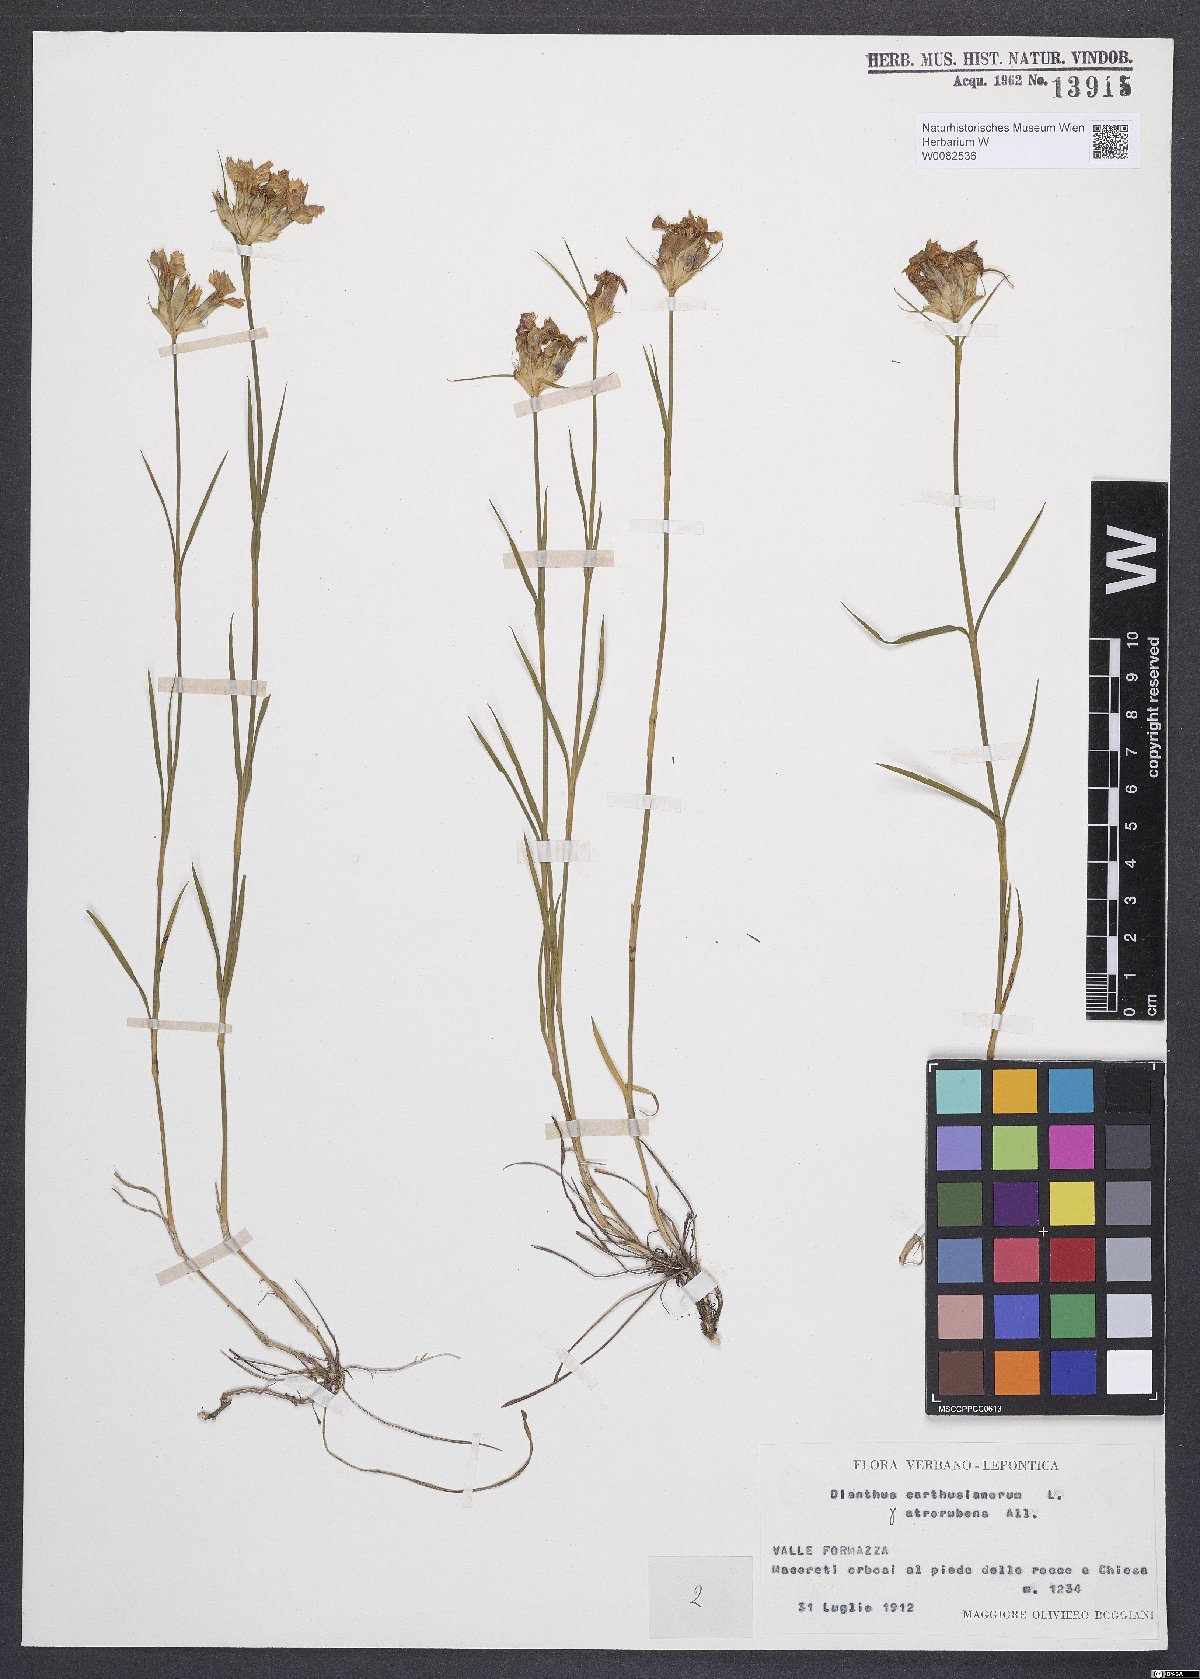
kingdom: Plantae
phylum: Tracheophyta
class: Magnoliopsida
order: Caryophyllales
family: Caryophyllaceae
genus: Dianthus
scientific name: Dianthus carthusianorum
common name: Carthusian pink
